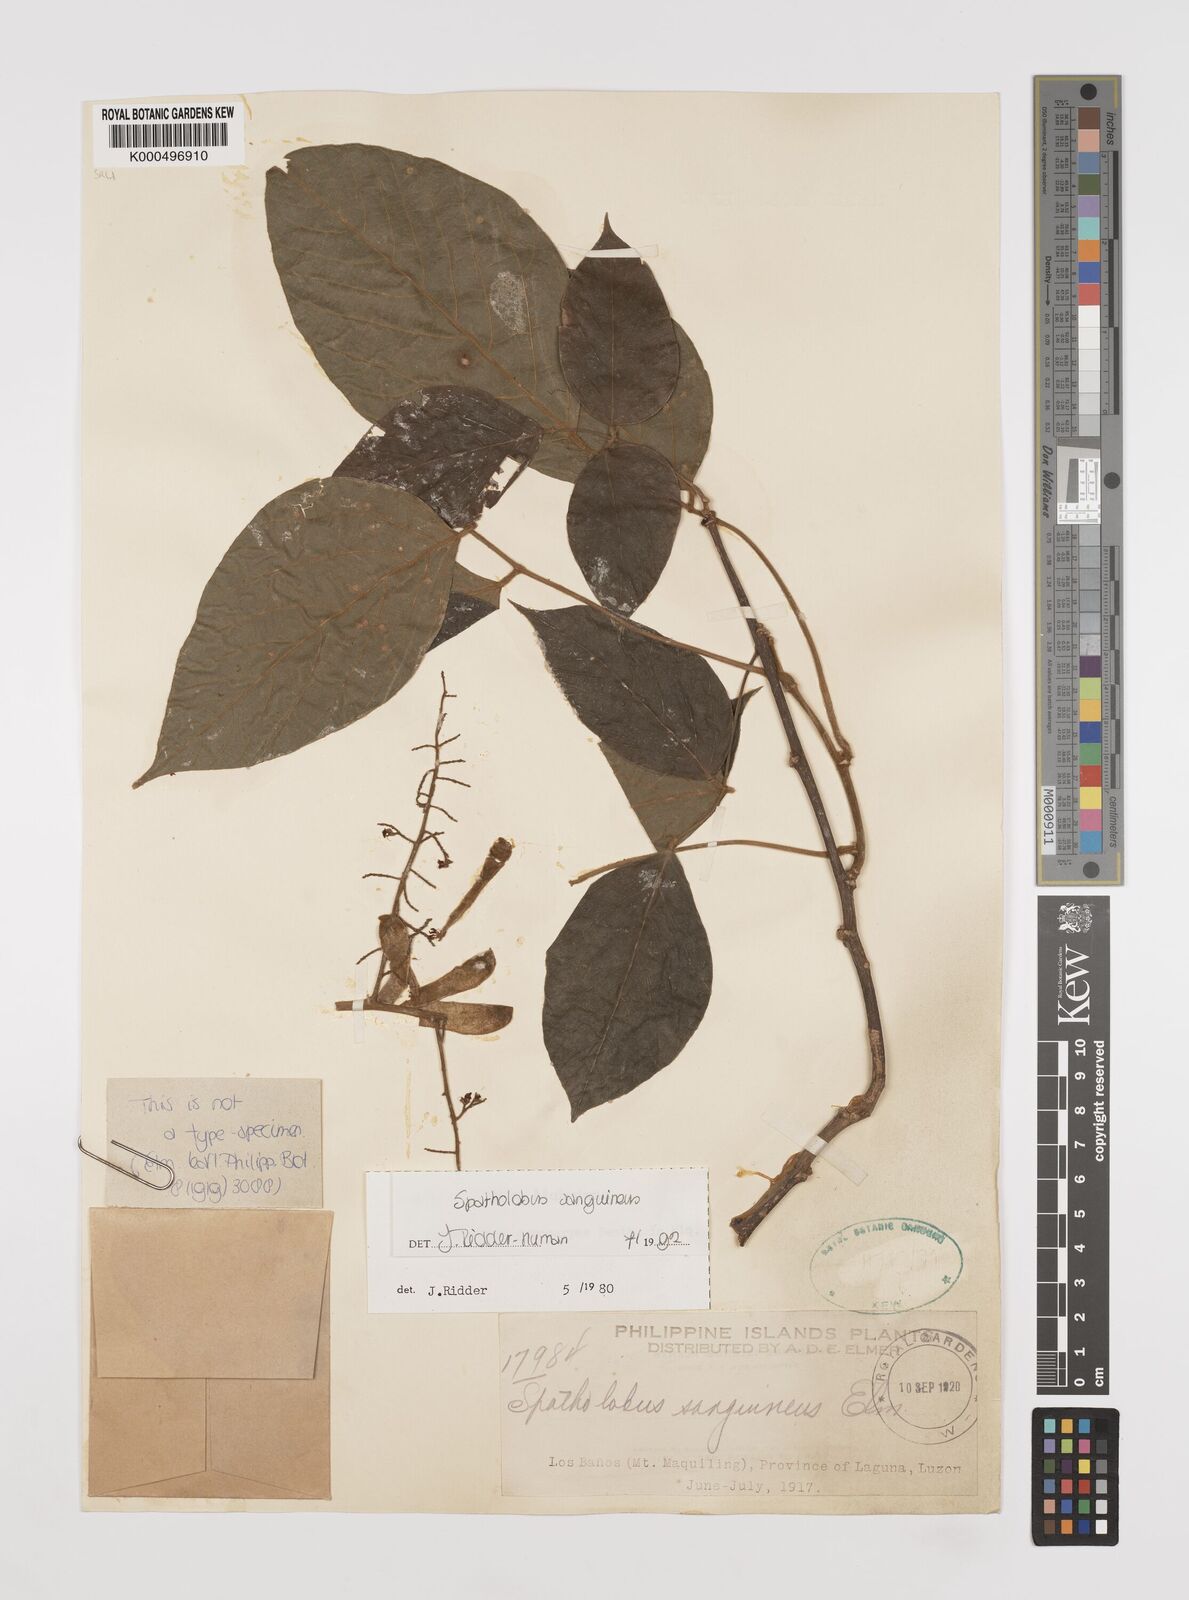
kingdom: Plantae
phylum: Tracheophyta
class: Magnoliopsida
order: Fabales
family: Fabaceae
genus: Spatholobus
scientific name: Spatholobus
